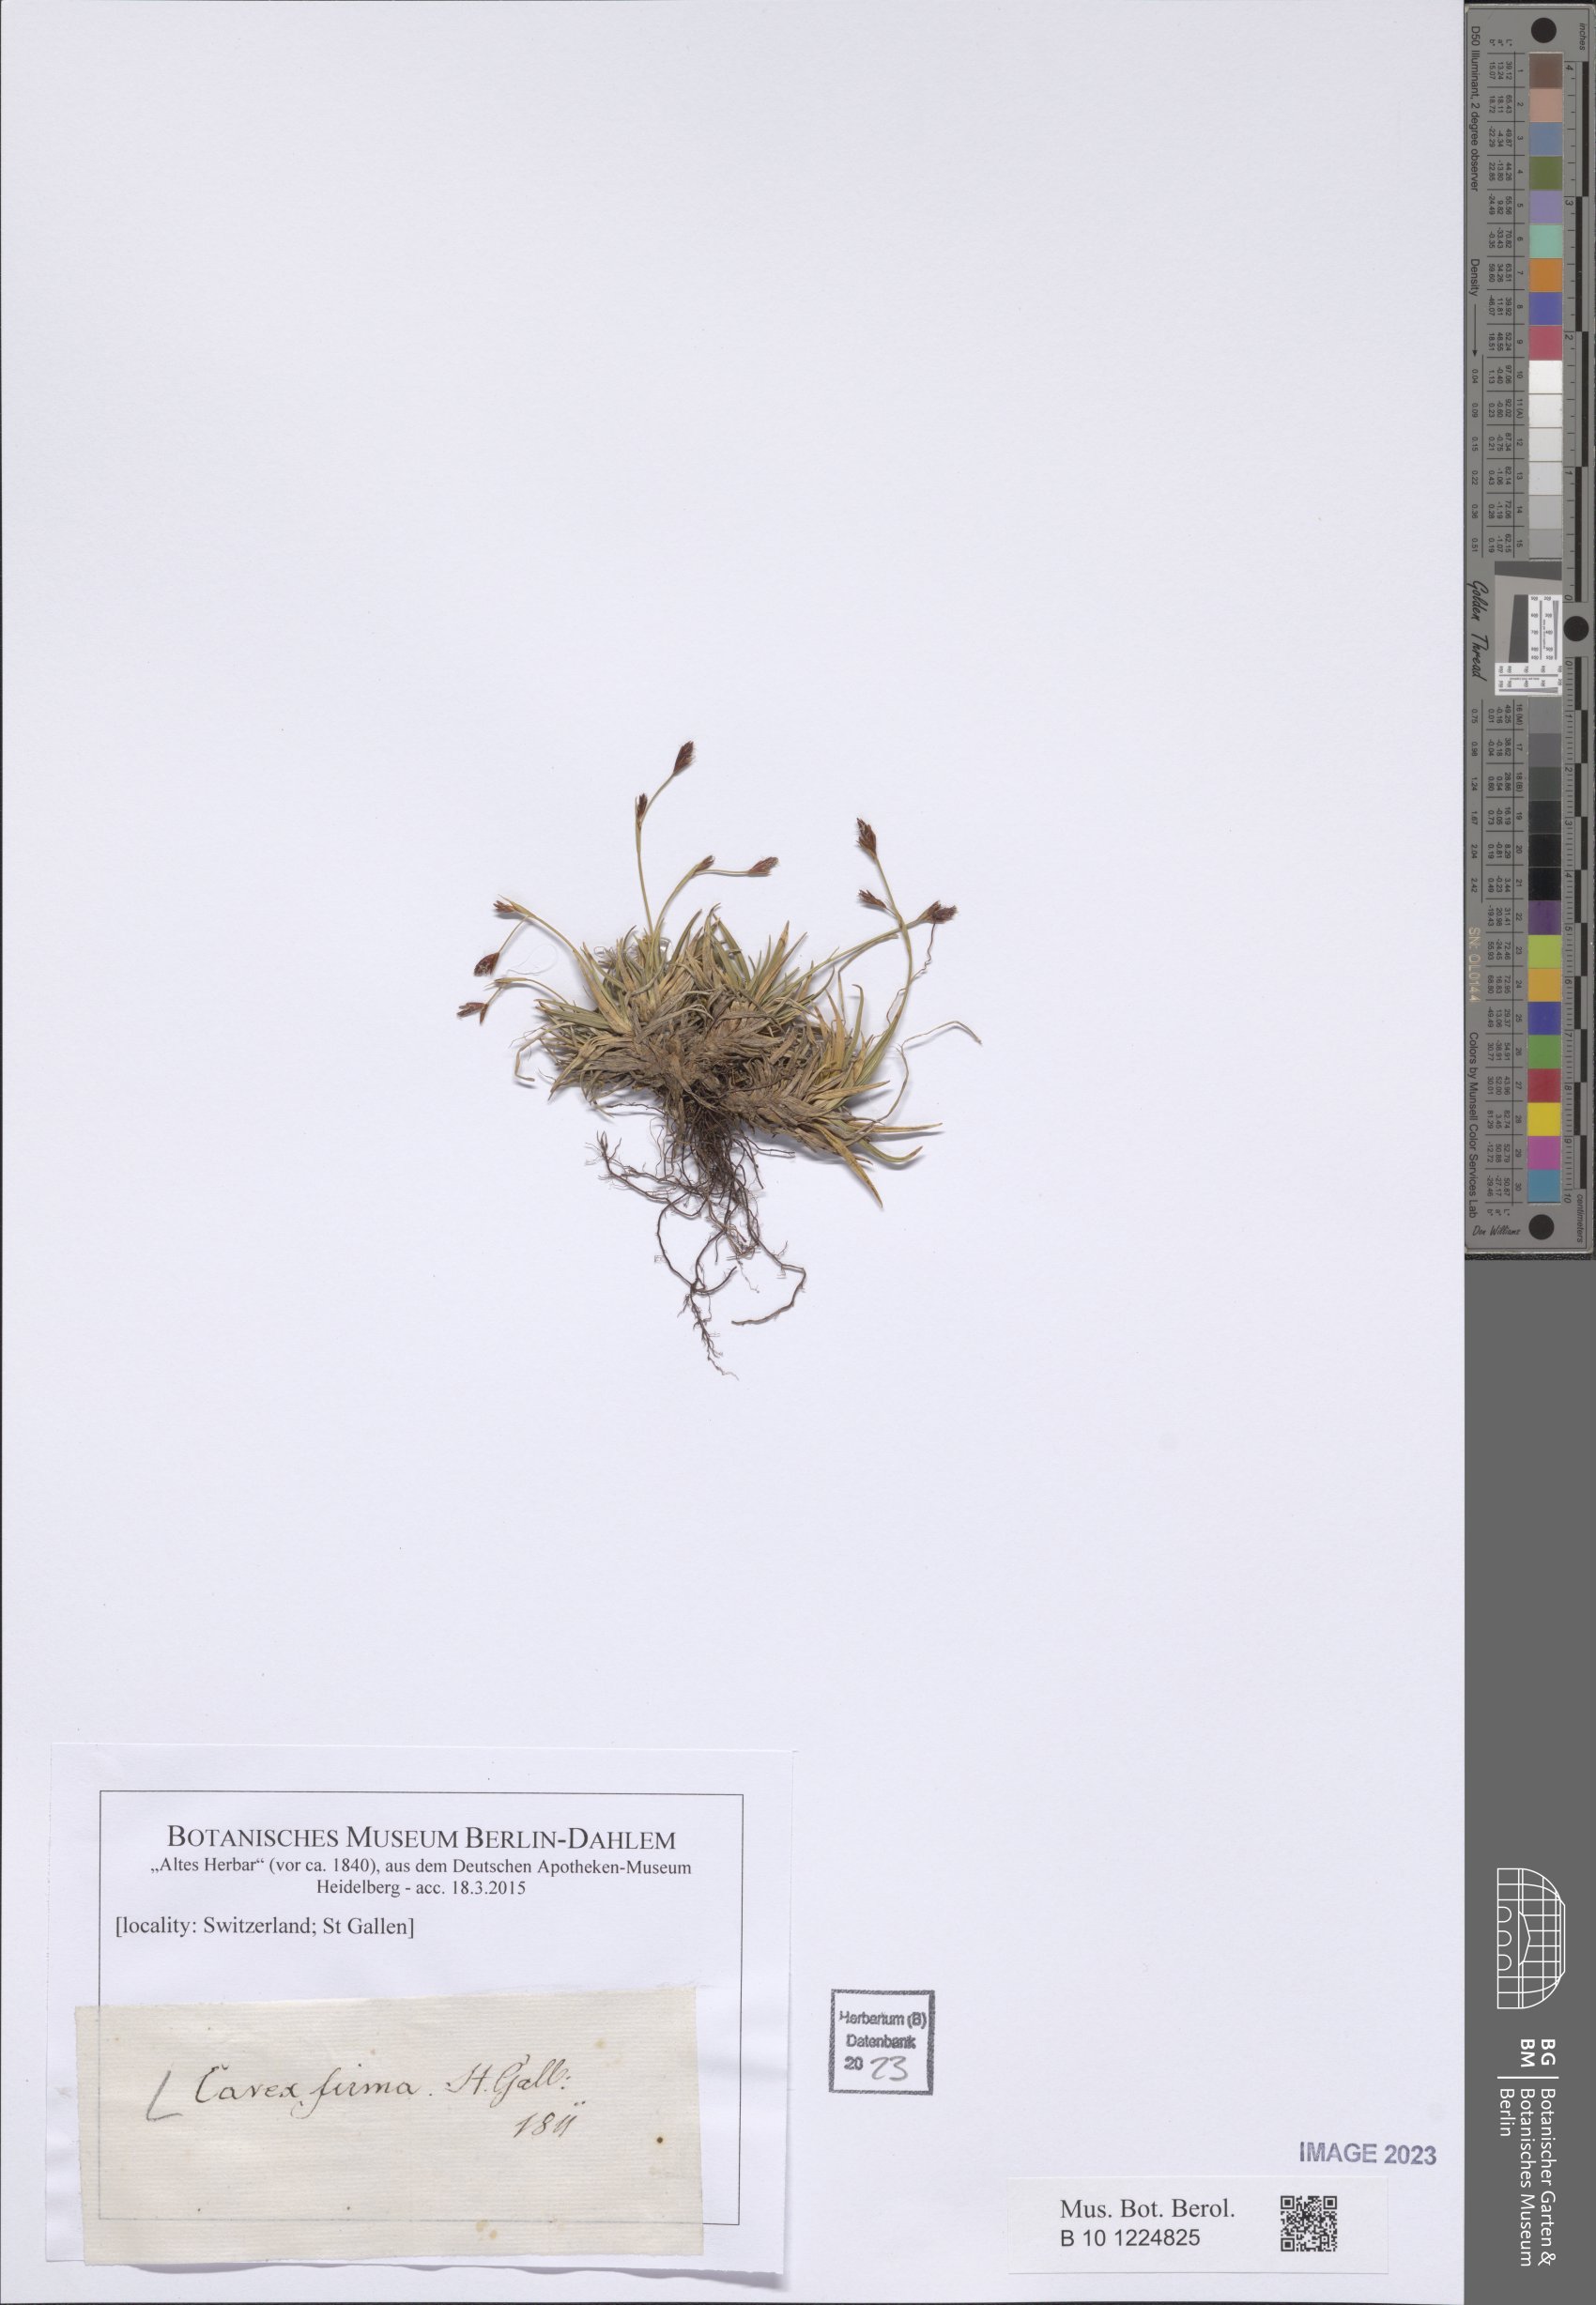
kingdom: Plantae
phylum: Tracheophyta
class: Liliopsida
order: Poales
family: Cyperaceae
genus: Carex
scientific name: Carex firma
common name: Dwarf pillow sedge
